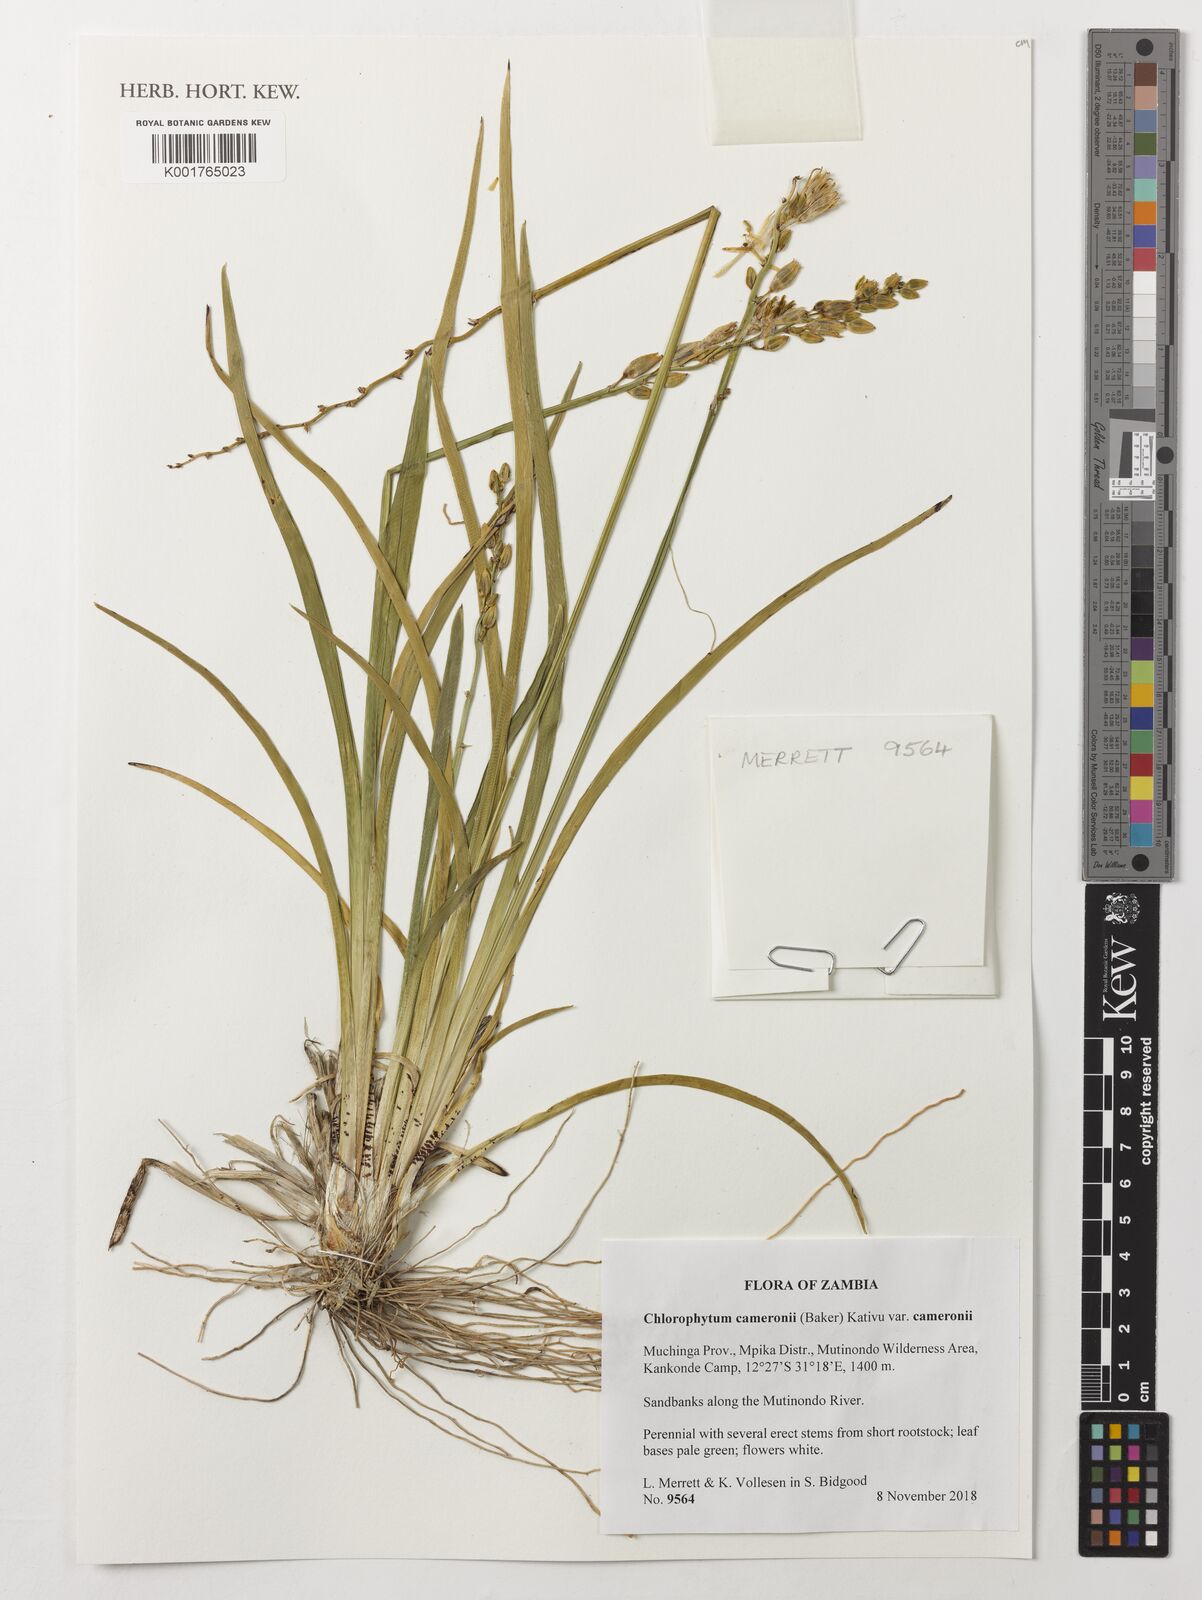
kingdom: Plantae
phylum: Tracheophyta
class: Liliopsida
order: Asparagales
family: Asparagaceae
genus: Chlorophytum
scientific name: Chlorophytum cameronii
